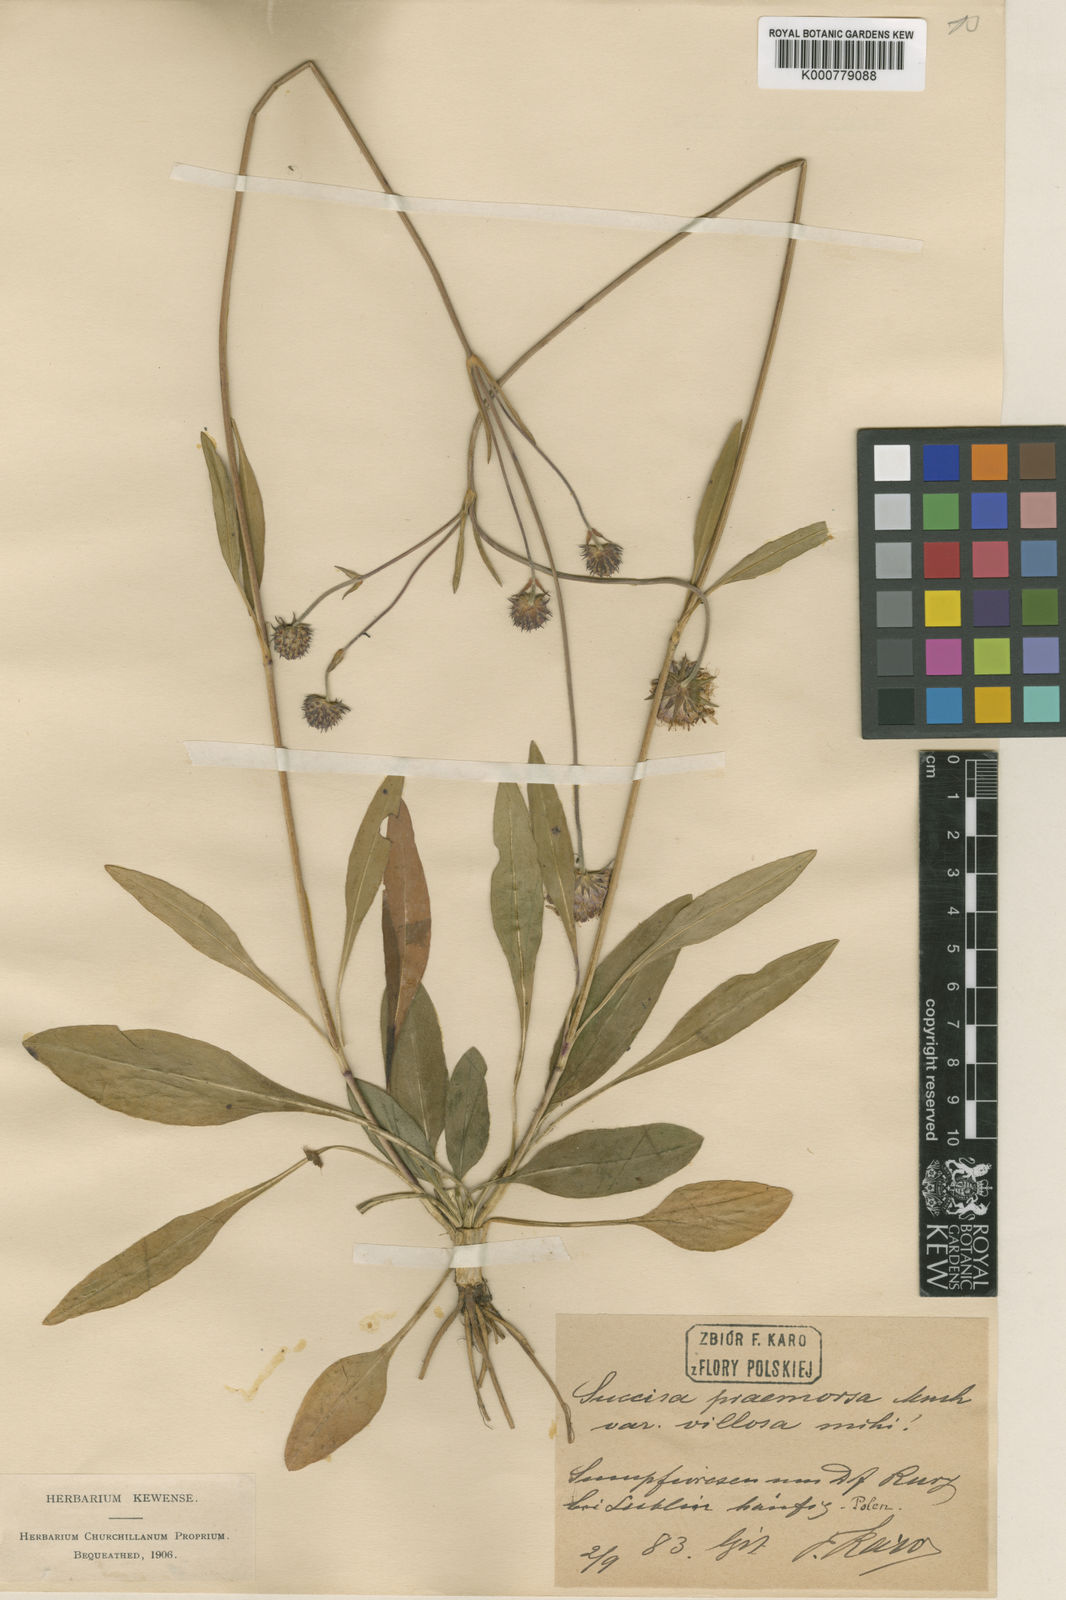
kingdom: Plantae
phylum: Tracheophyta
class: Magnoliopsida
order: Dipsacales
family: Caprifoliaceae
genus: Succisa
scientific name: Succisa pratensis
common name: Devil's-bit
